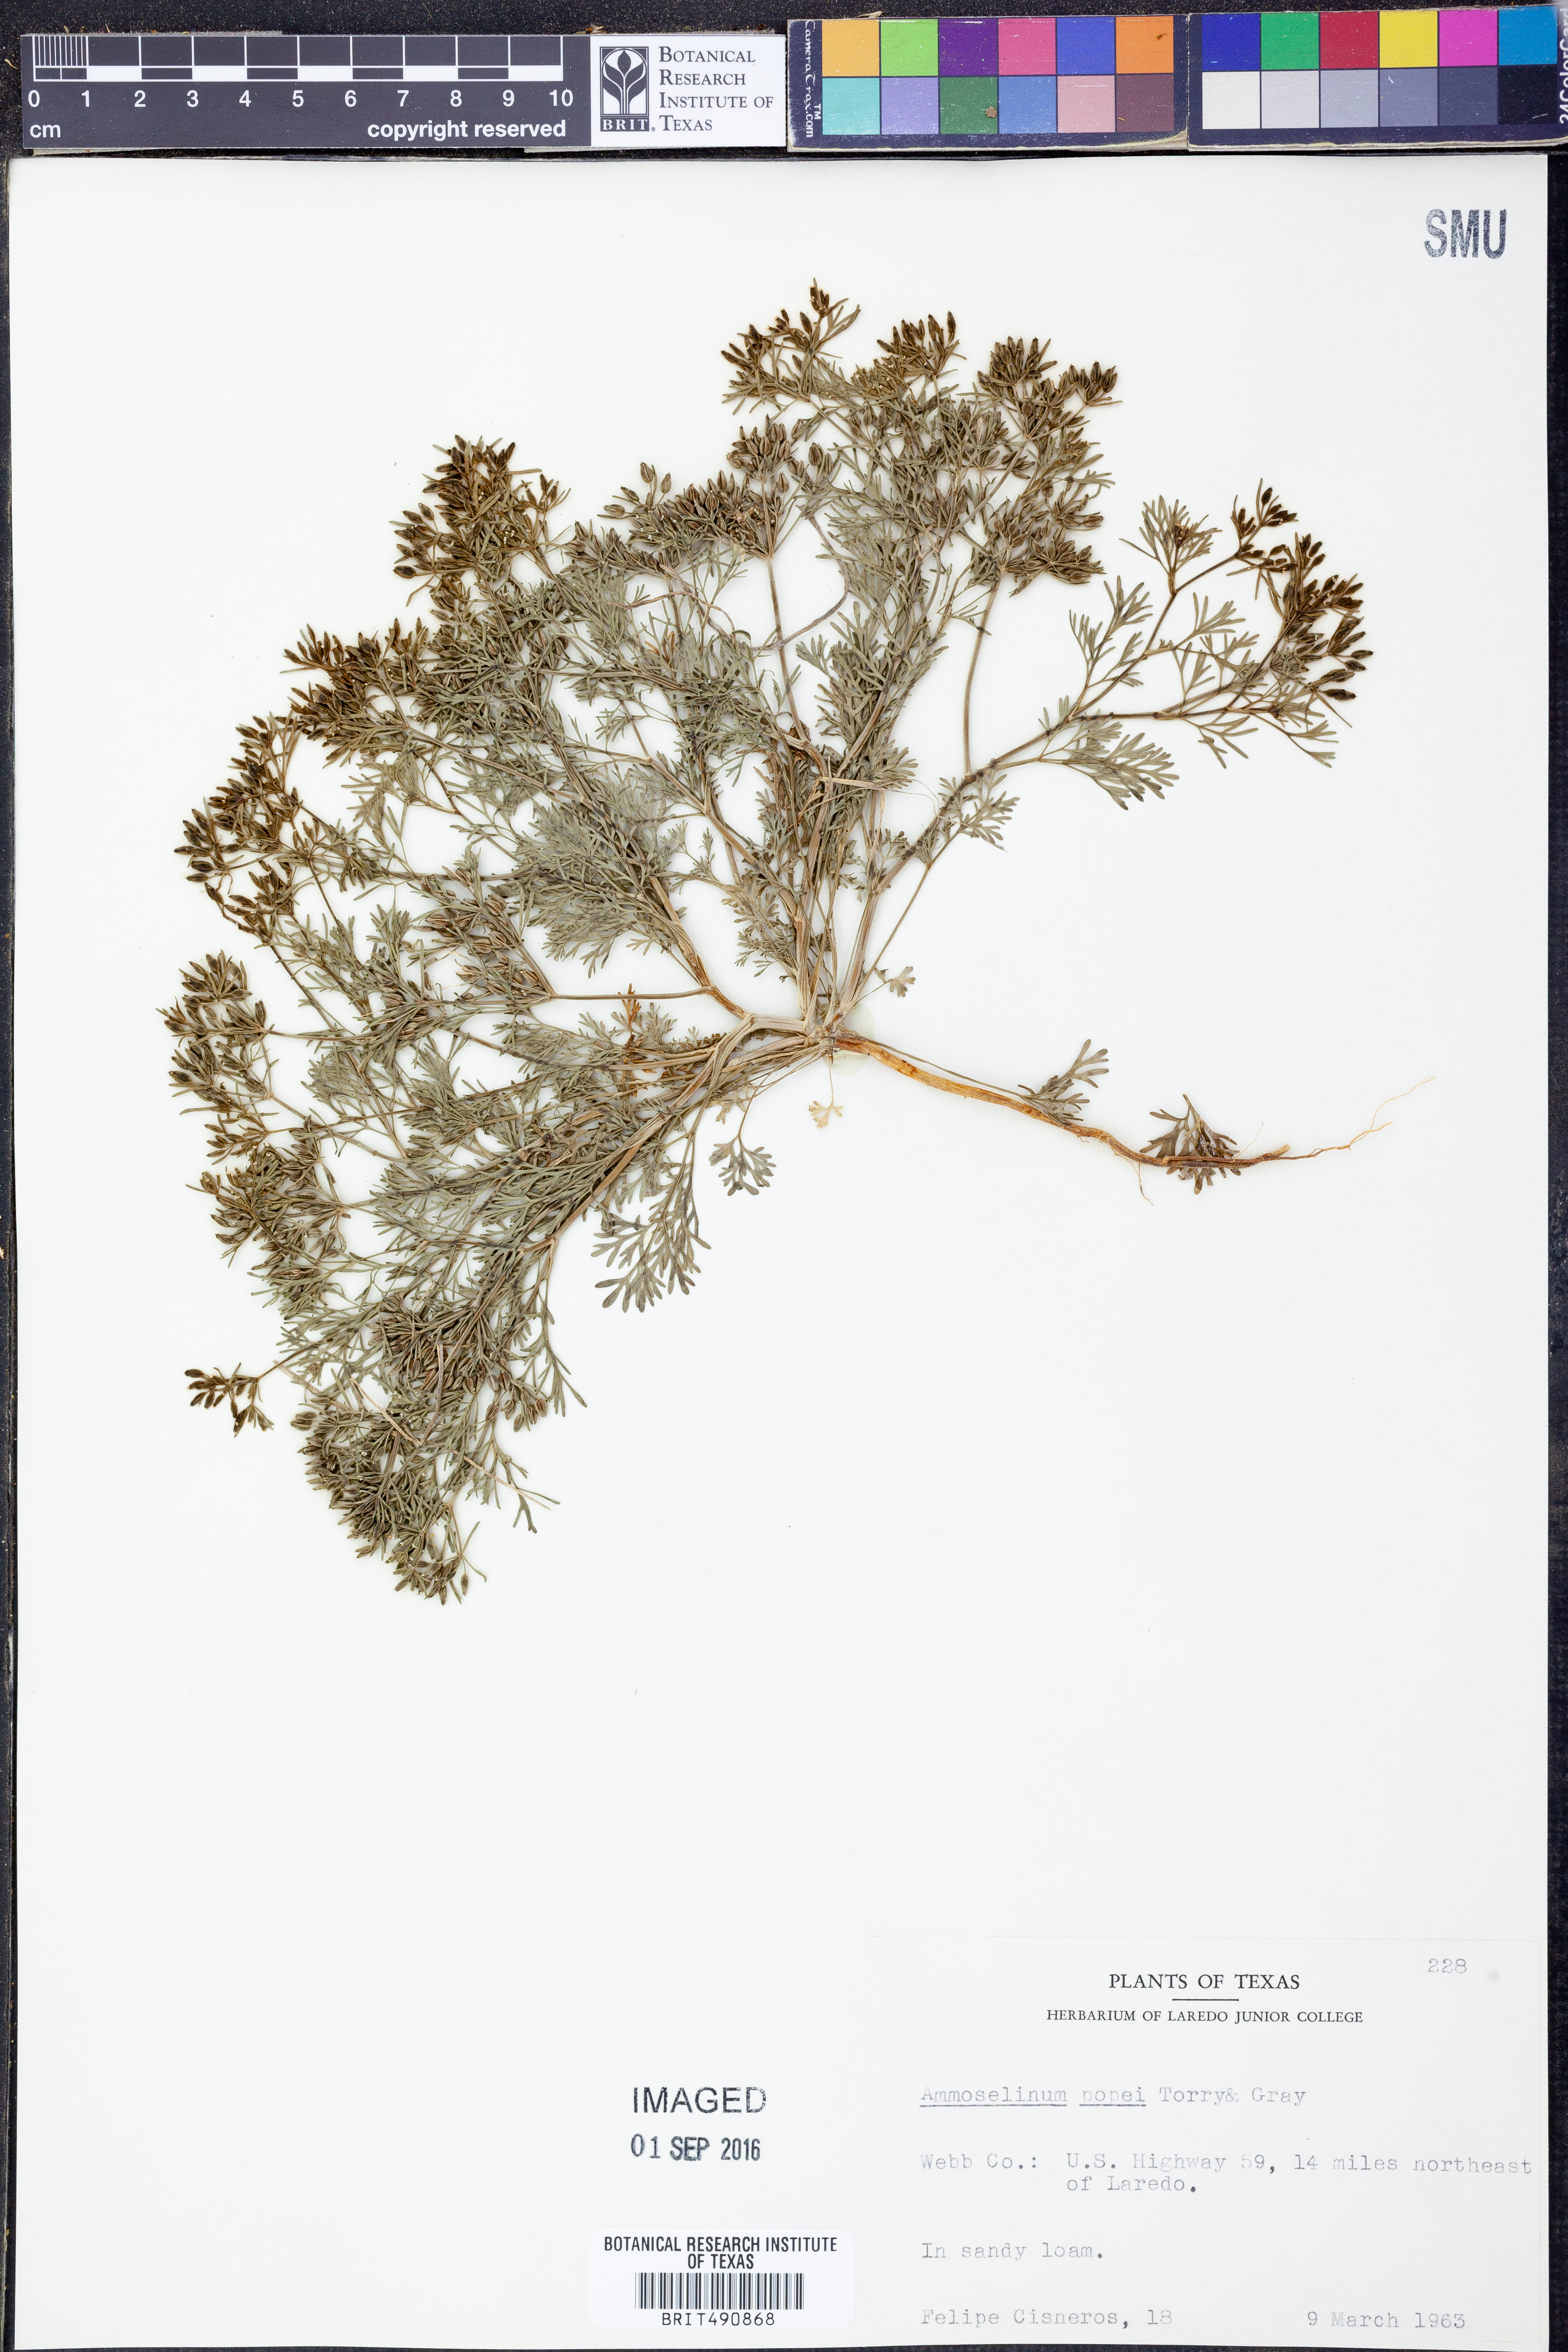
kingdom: Plantae
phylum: Tracheophyta
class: Magnoliopsida
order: Apiales
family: Apiaceae
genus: Ammoselinum
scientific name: Ammoselinum popei
